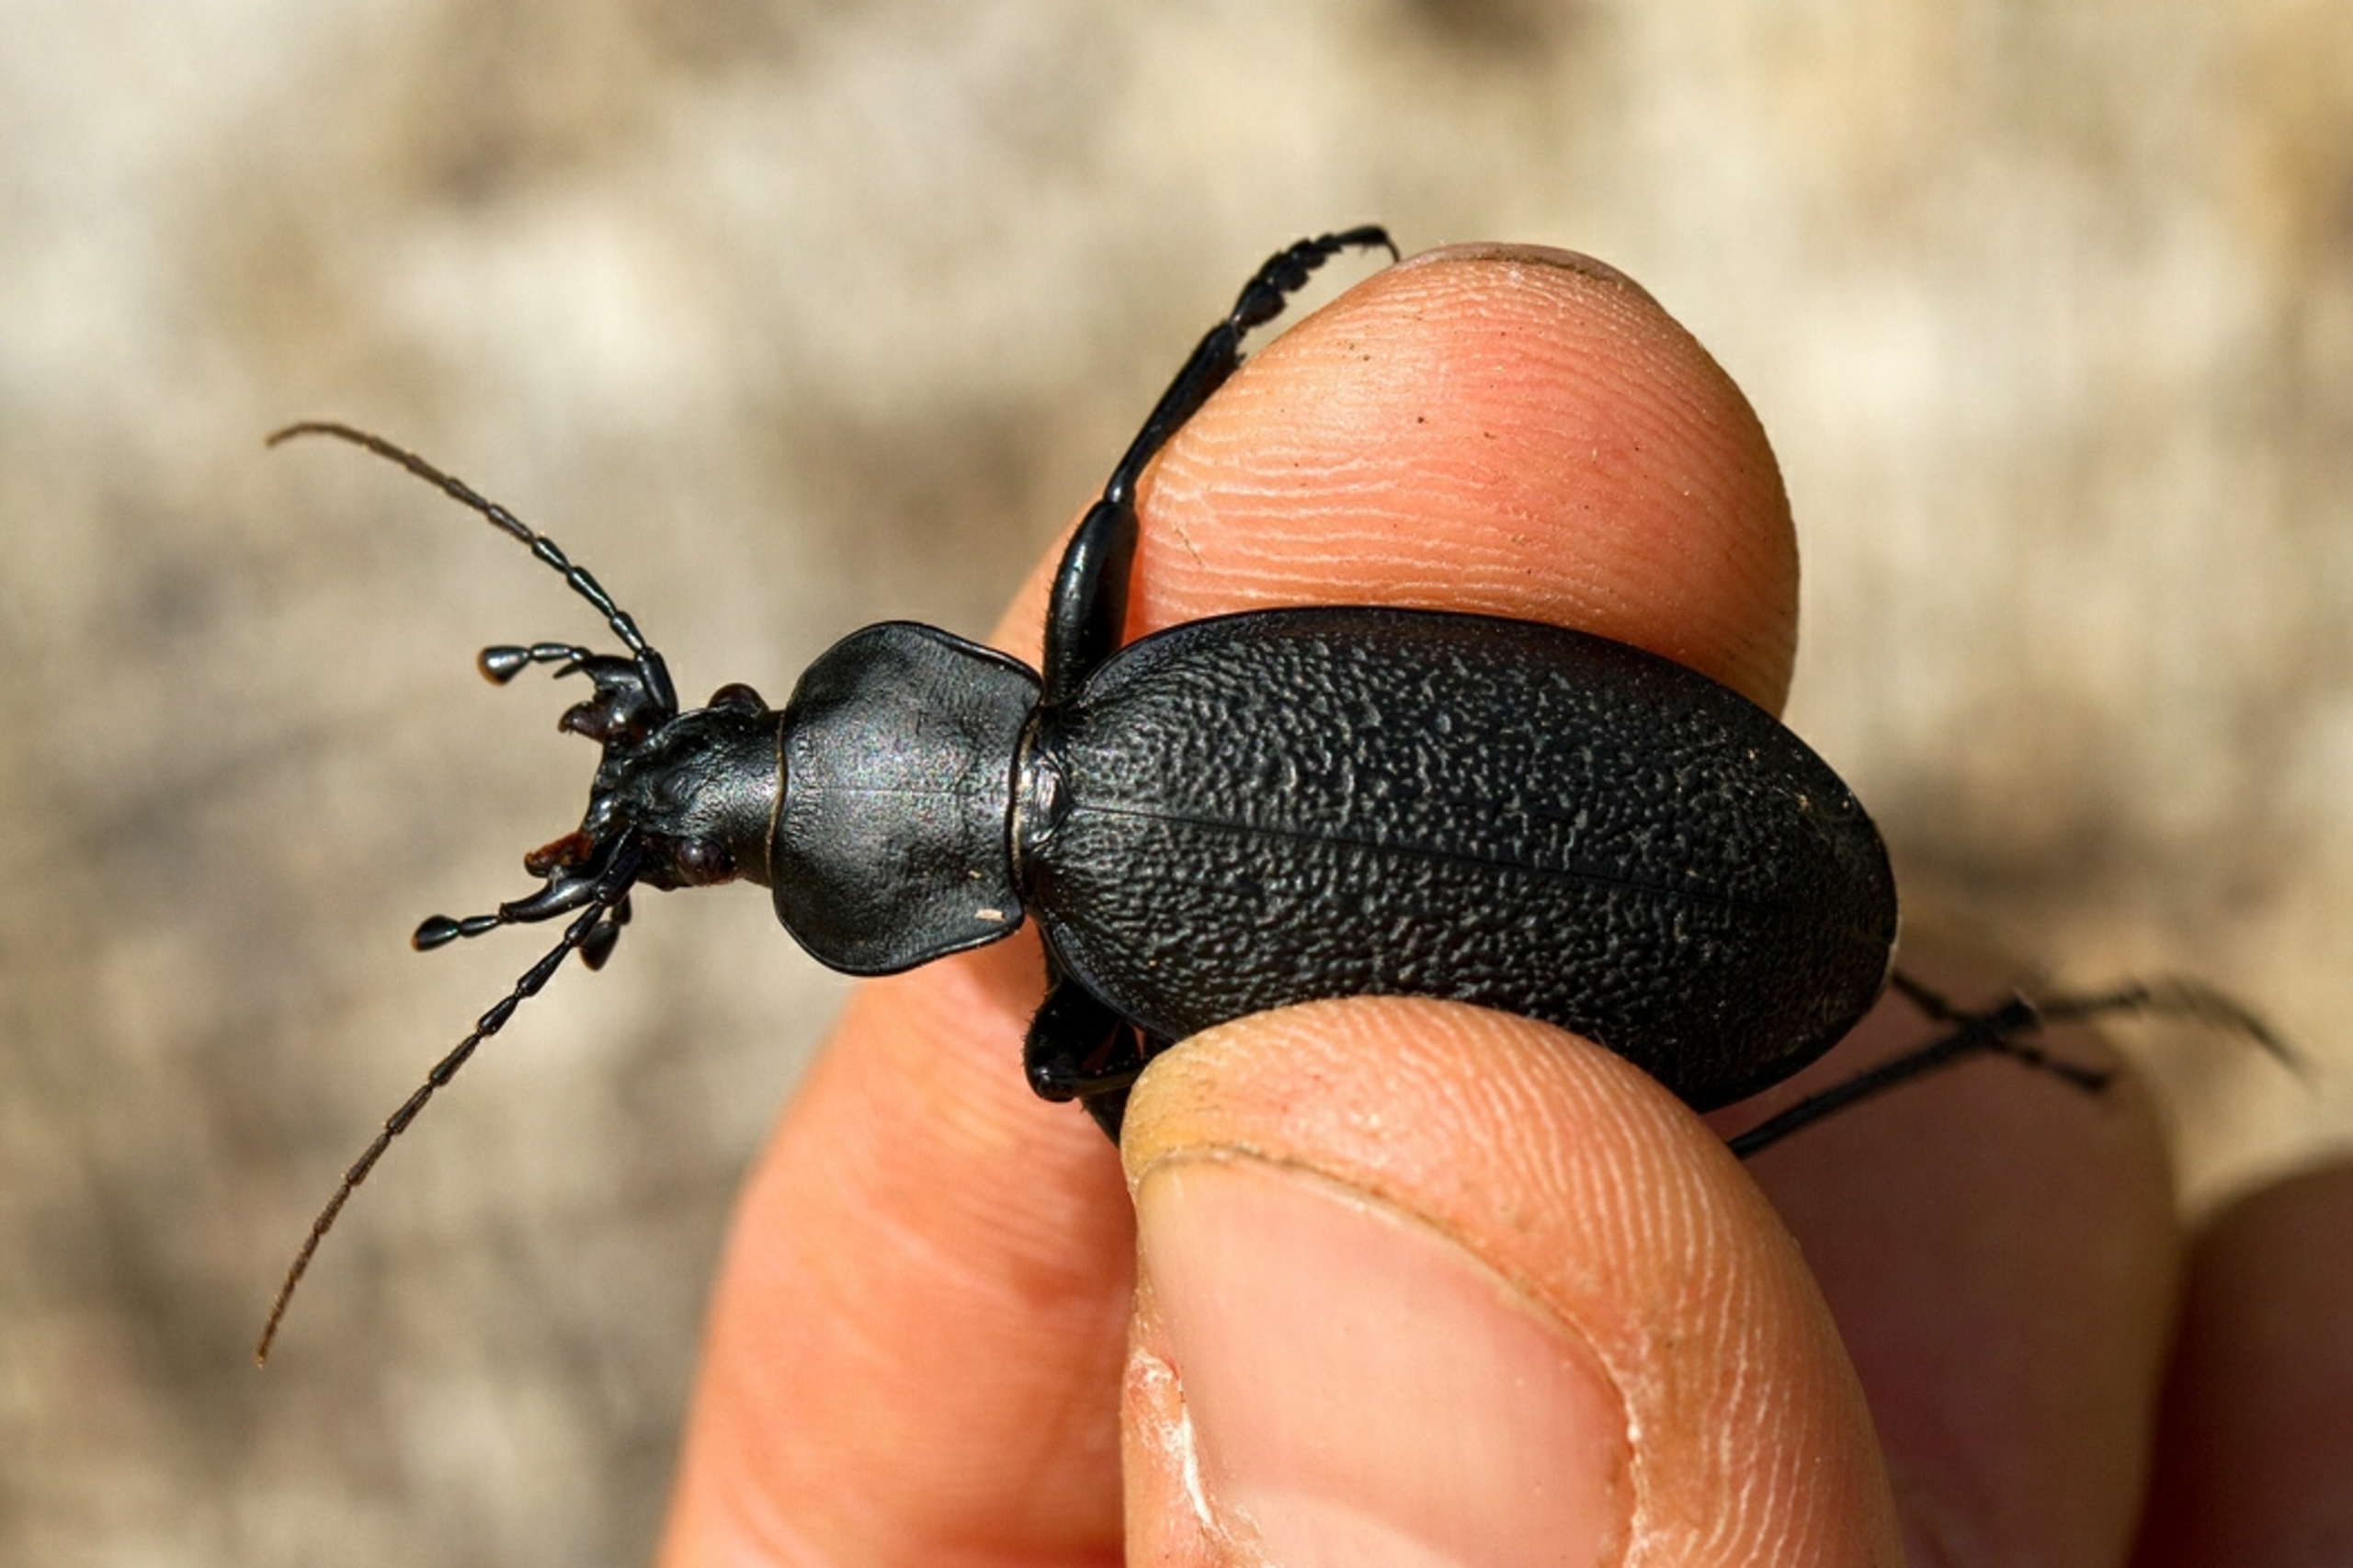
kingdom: Animalia
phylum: Arthropoda
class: Insecta
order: Coleoptera
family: Carabidae
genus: Carabus
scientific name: Carabus coriaceus
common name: Læderløber
